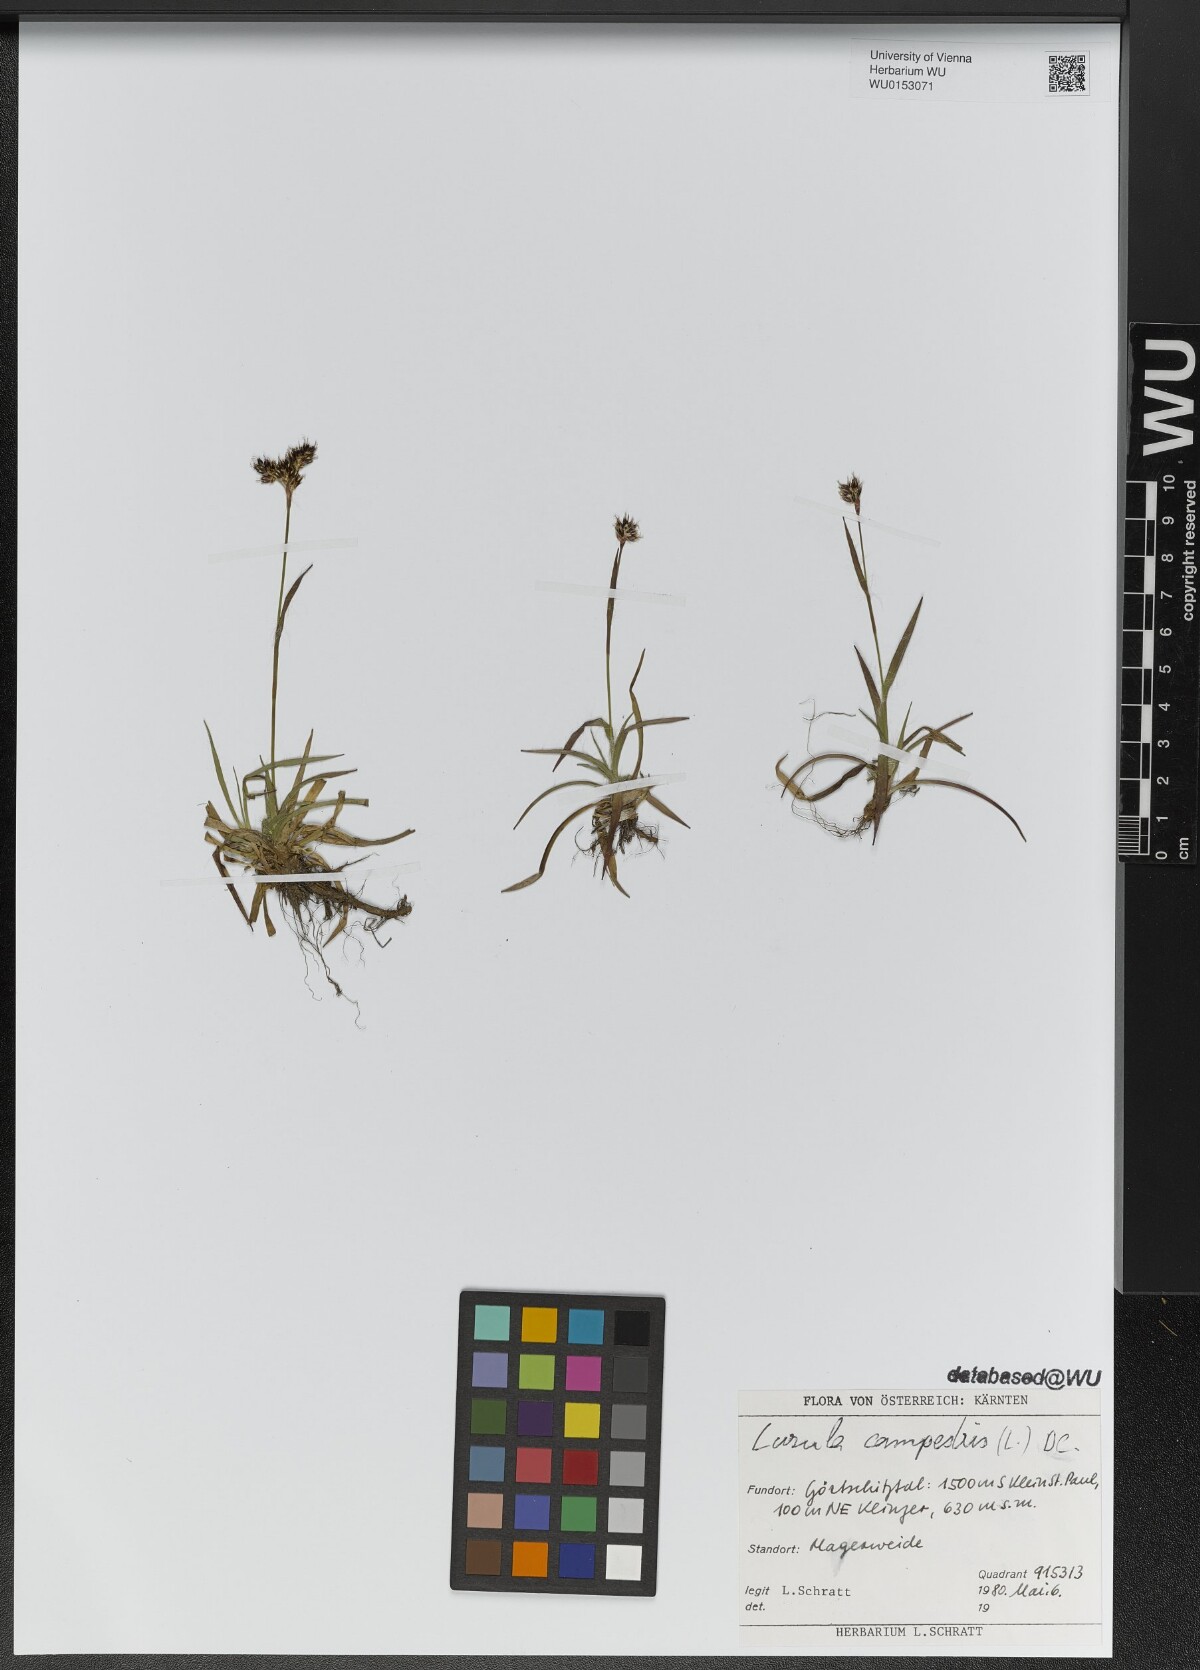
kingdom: Plantae
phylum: Tracheophyta
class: Liliopsida
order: Poales
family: Juncaceae
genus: Luzula
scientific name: Luzula campestris
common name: Field wood-rush
